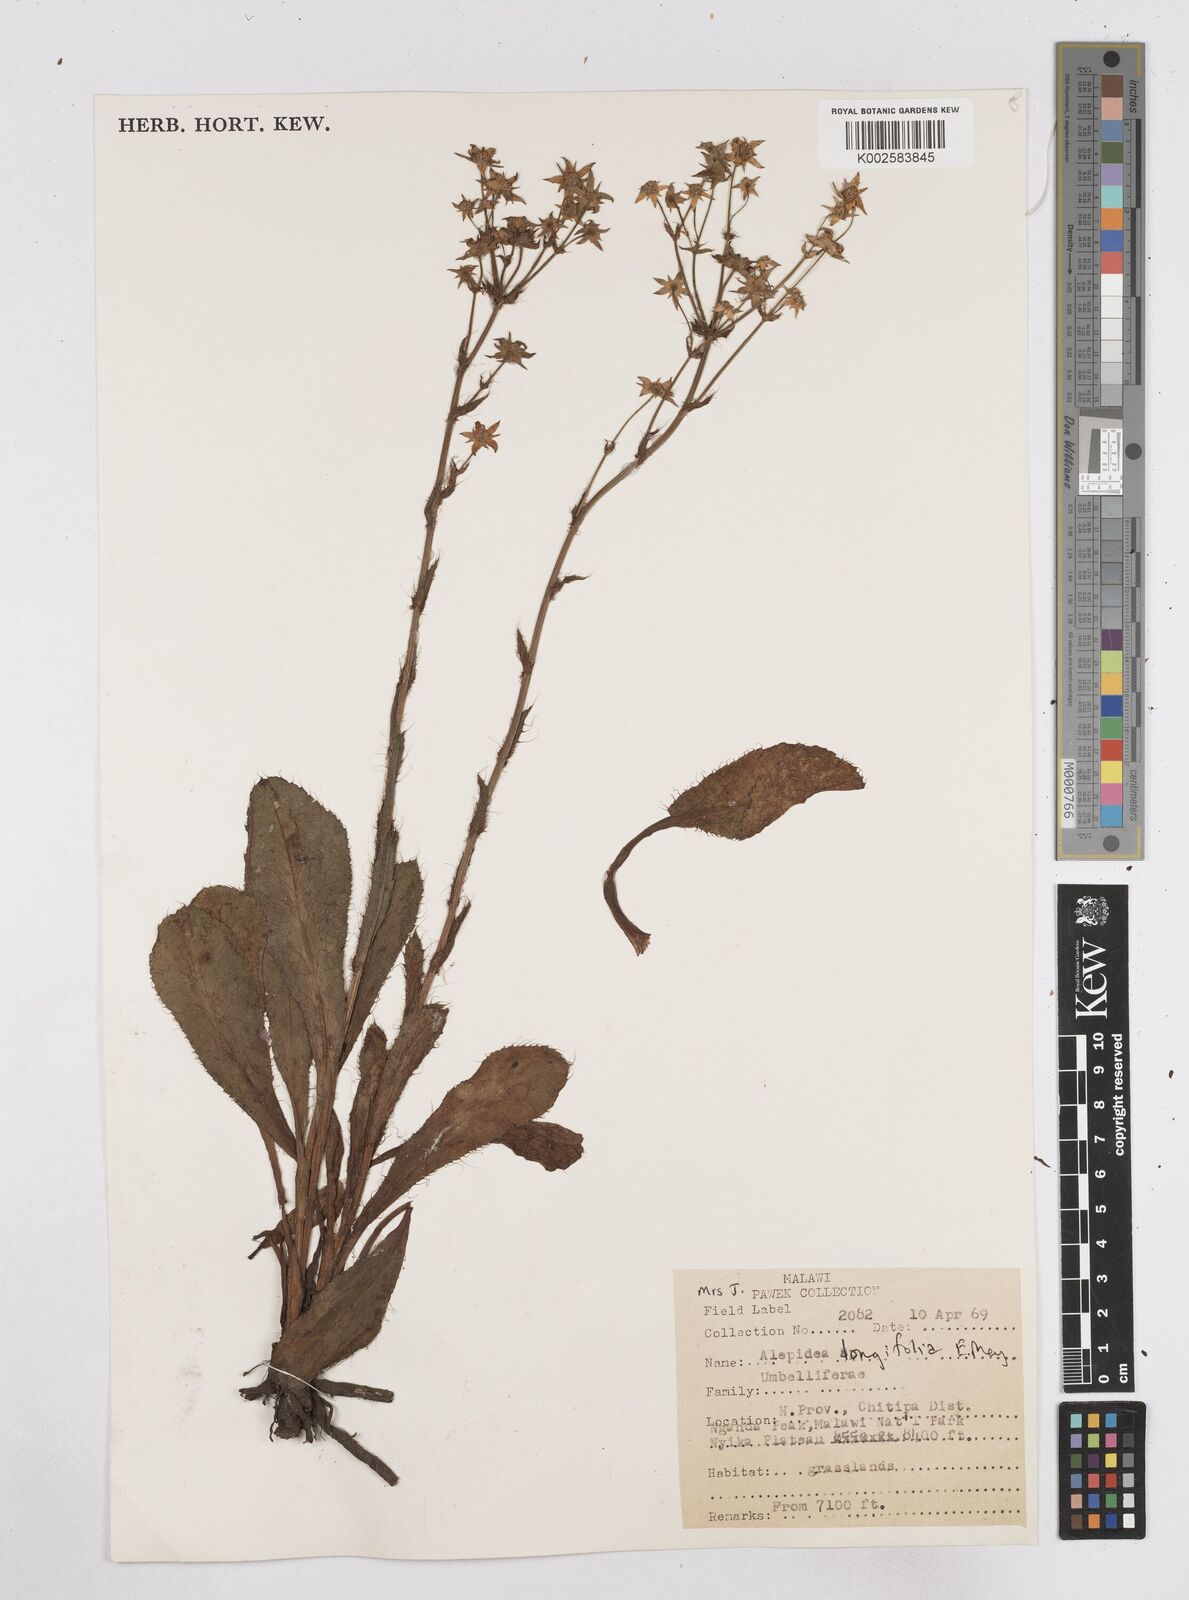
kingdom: Plantae
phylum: Tracheophyta
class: Magnoliopsida
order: Apiales
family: Apiaceae
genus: Alepidea
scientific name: Alepidea peduncularis
